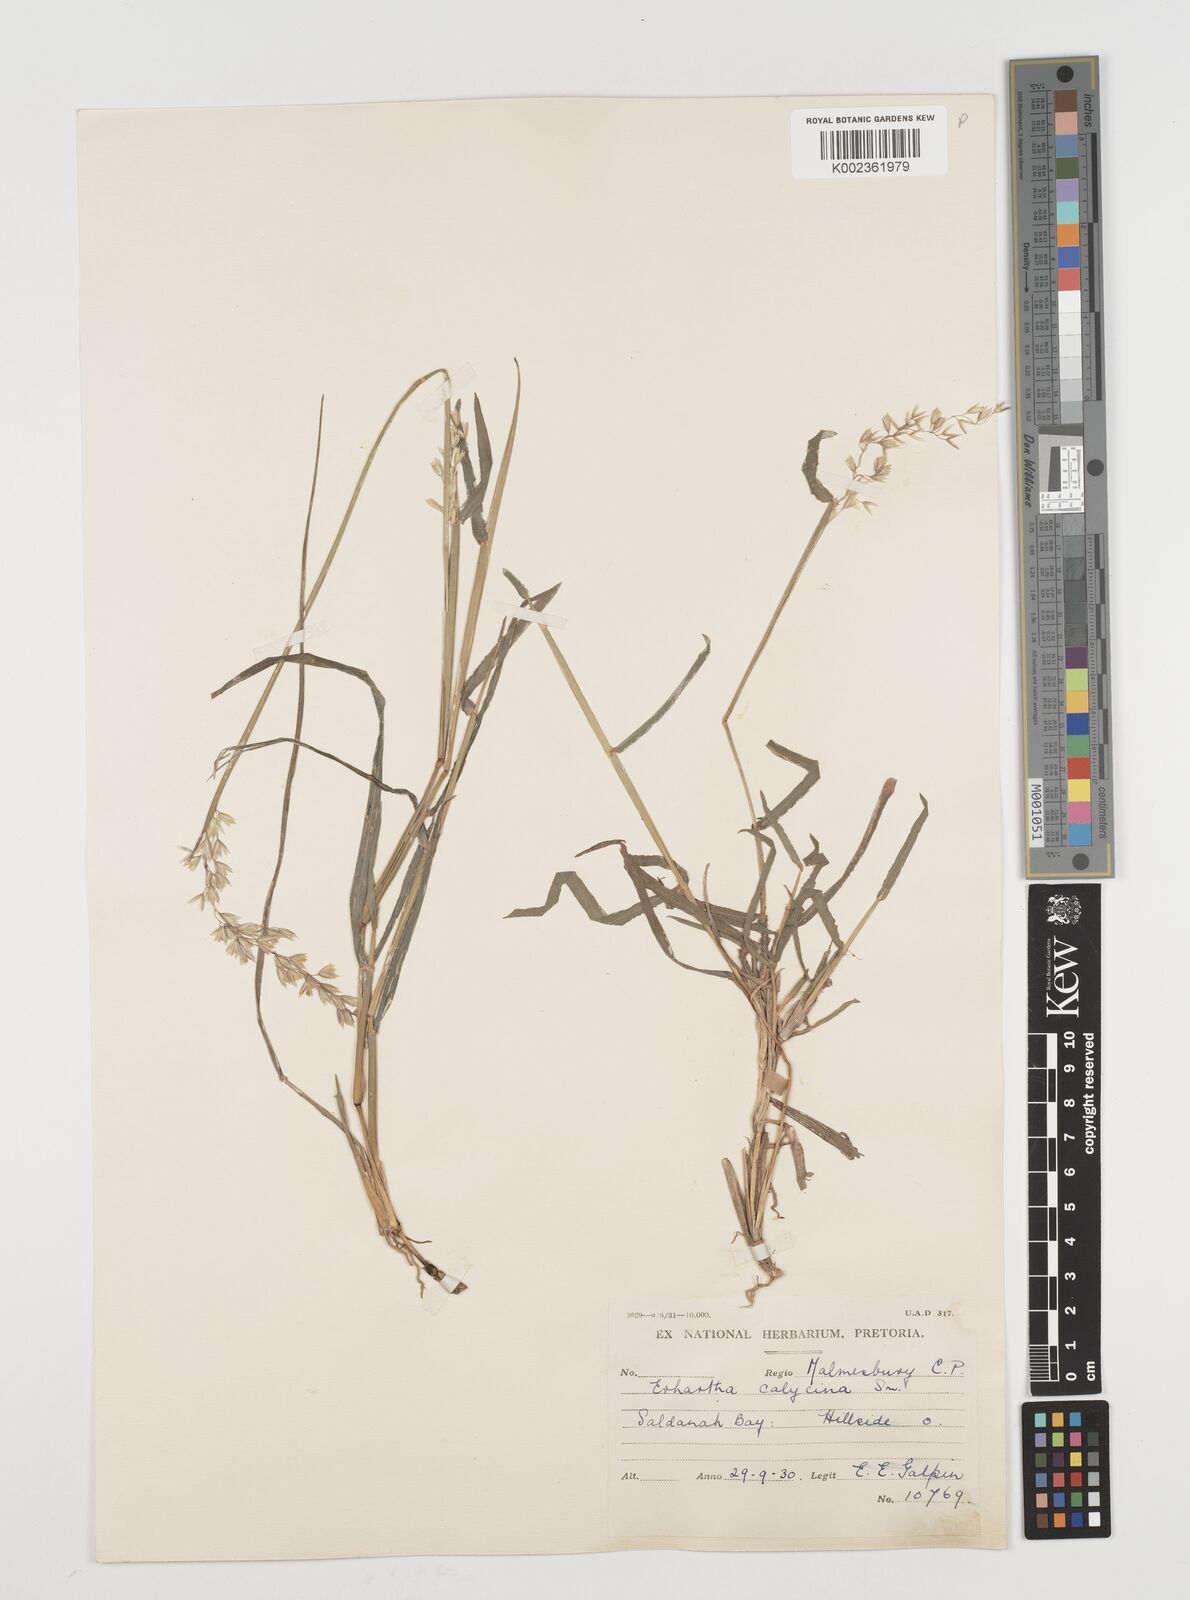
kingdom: Plantae
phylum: Tracheophyta
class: Liliopsida
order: Poales
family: Poaceae
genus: Ehrharta
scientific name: Ehrharta calycina
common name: Perennial veldtgrass
